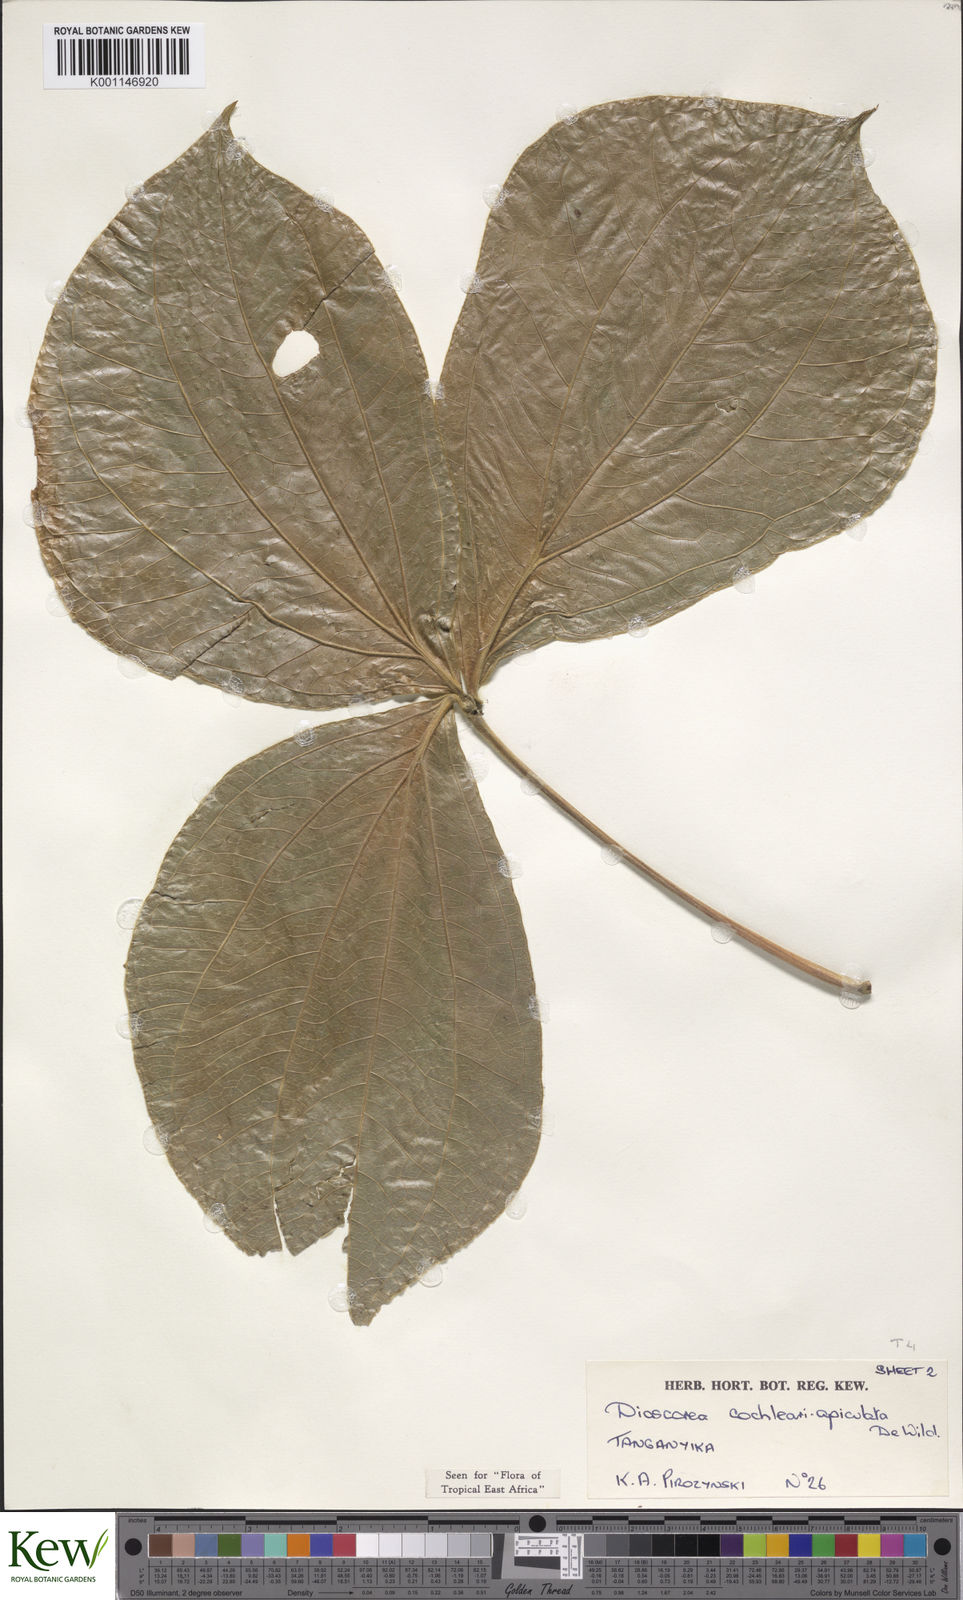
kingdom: Plantae
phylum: Tracheophyta
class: Liliopsida
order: Dioscoreales
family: Dioscoreaceae
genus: Dioscorea
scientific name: Dioscorea cochleariapiculata
